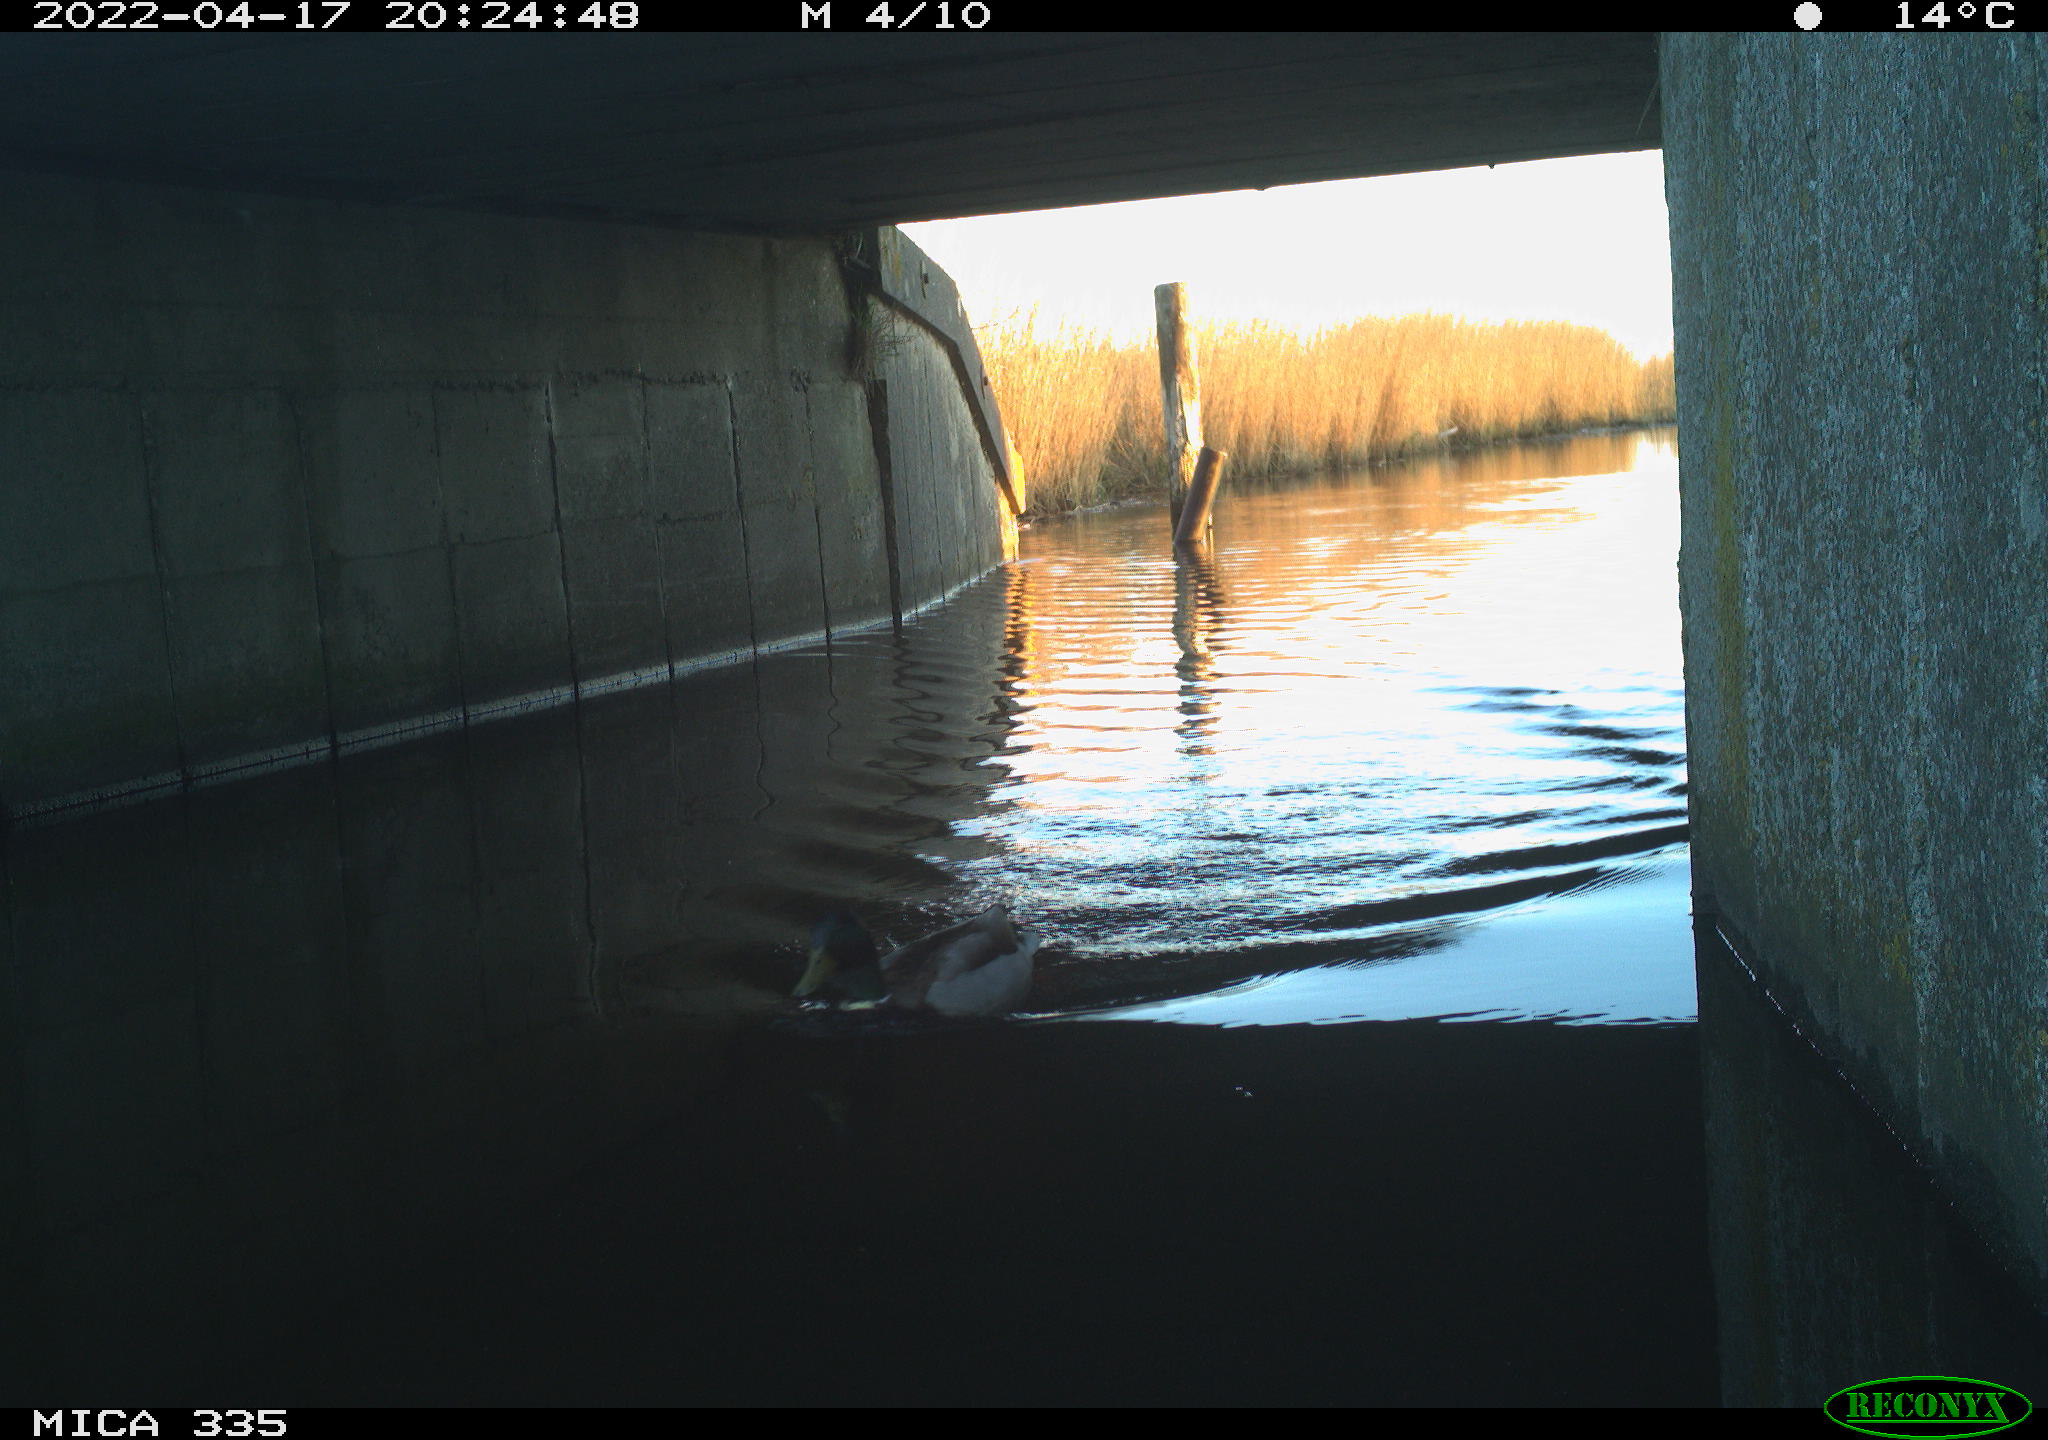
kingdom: Animalia
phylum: Chordata
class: Aves
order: Anseriformes
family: Anatidae
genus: Anas
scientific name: Anas platyrhynchos
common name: Mallard
